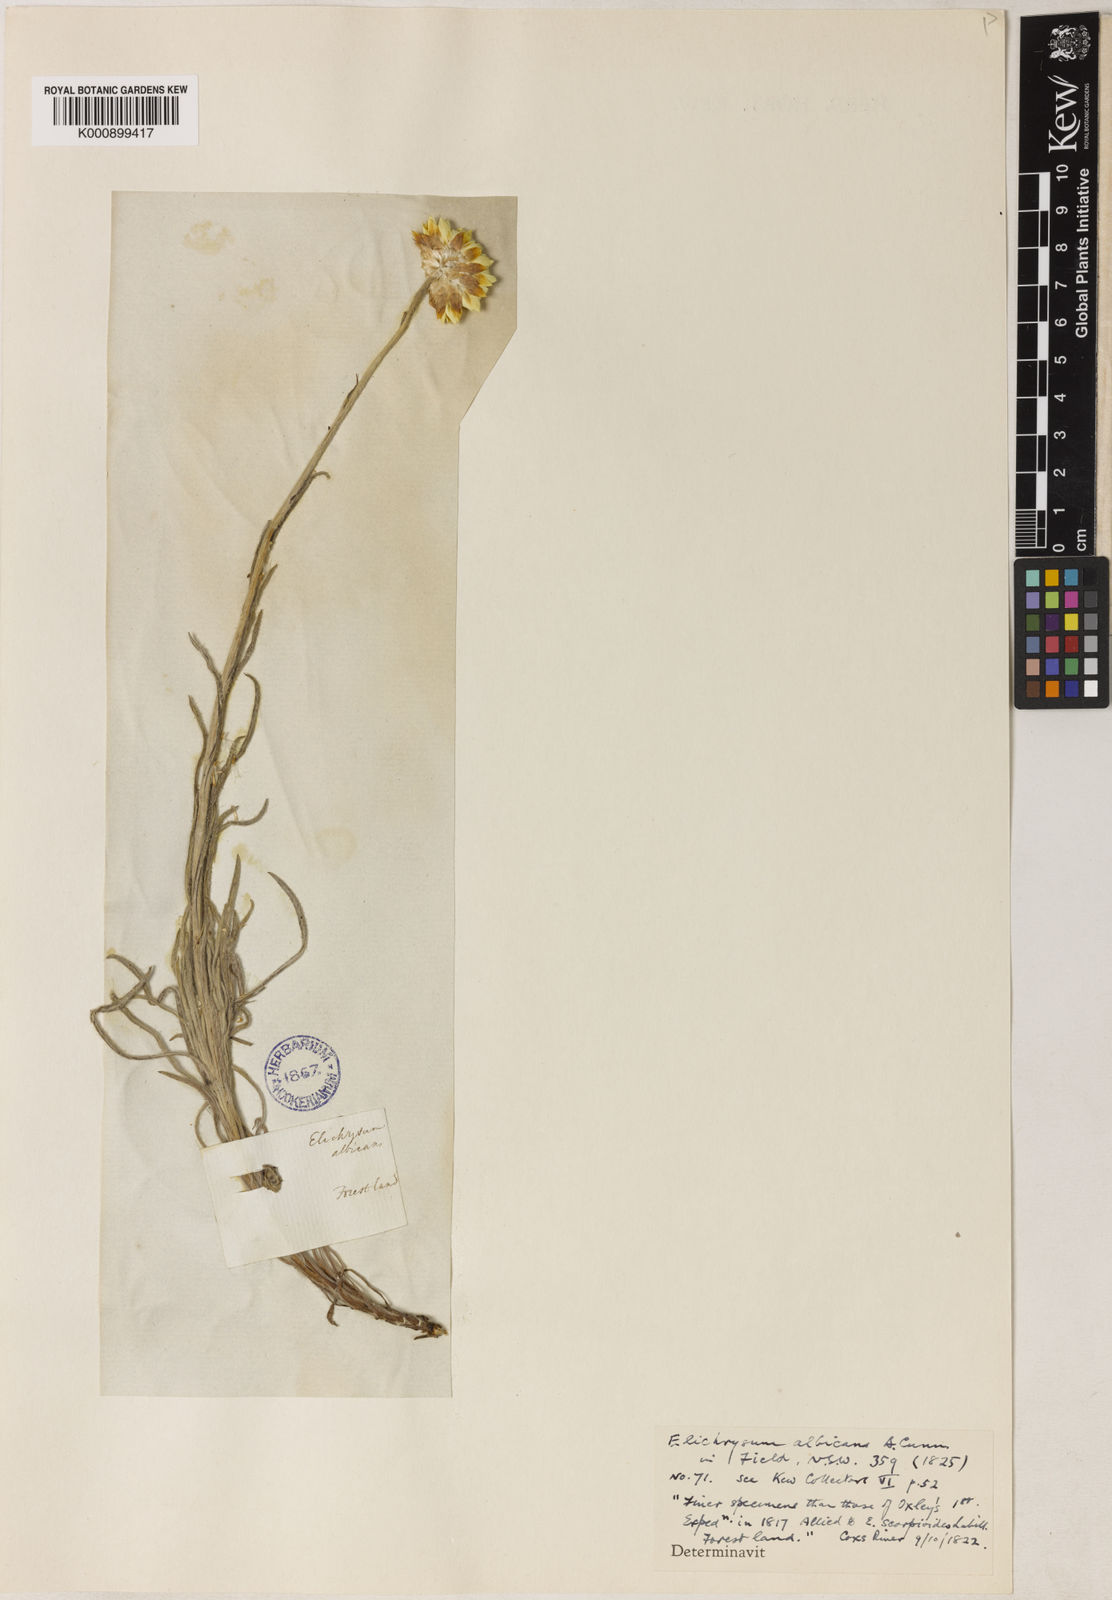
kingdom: Plantae
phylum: Tracheophyta
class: Magnoliopsida
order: Asterales
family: Asteraceae
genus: Leucochrysum
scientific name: Leucochrysum albicans
